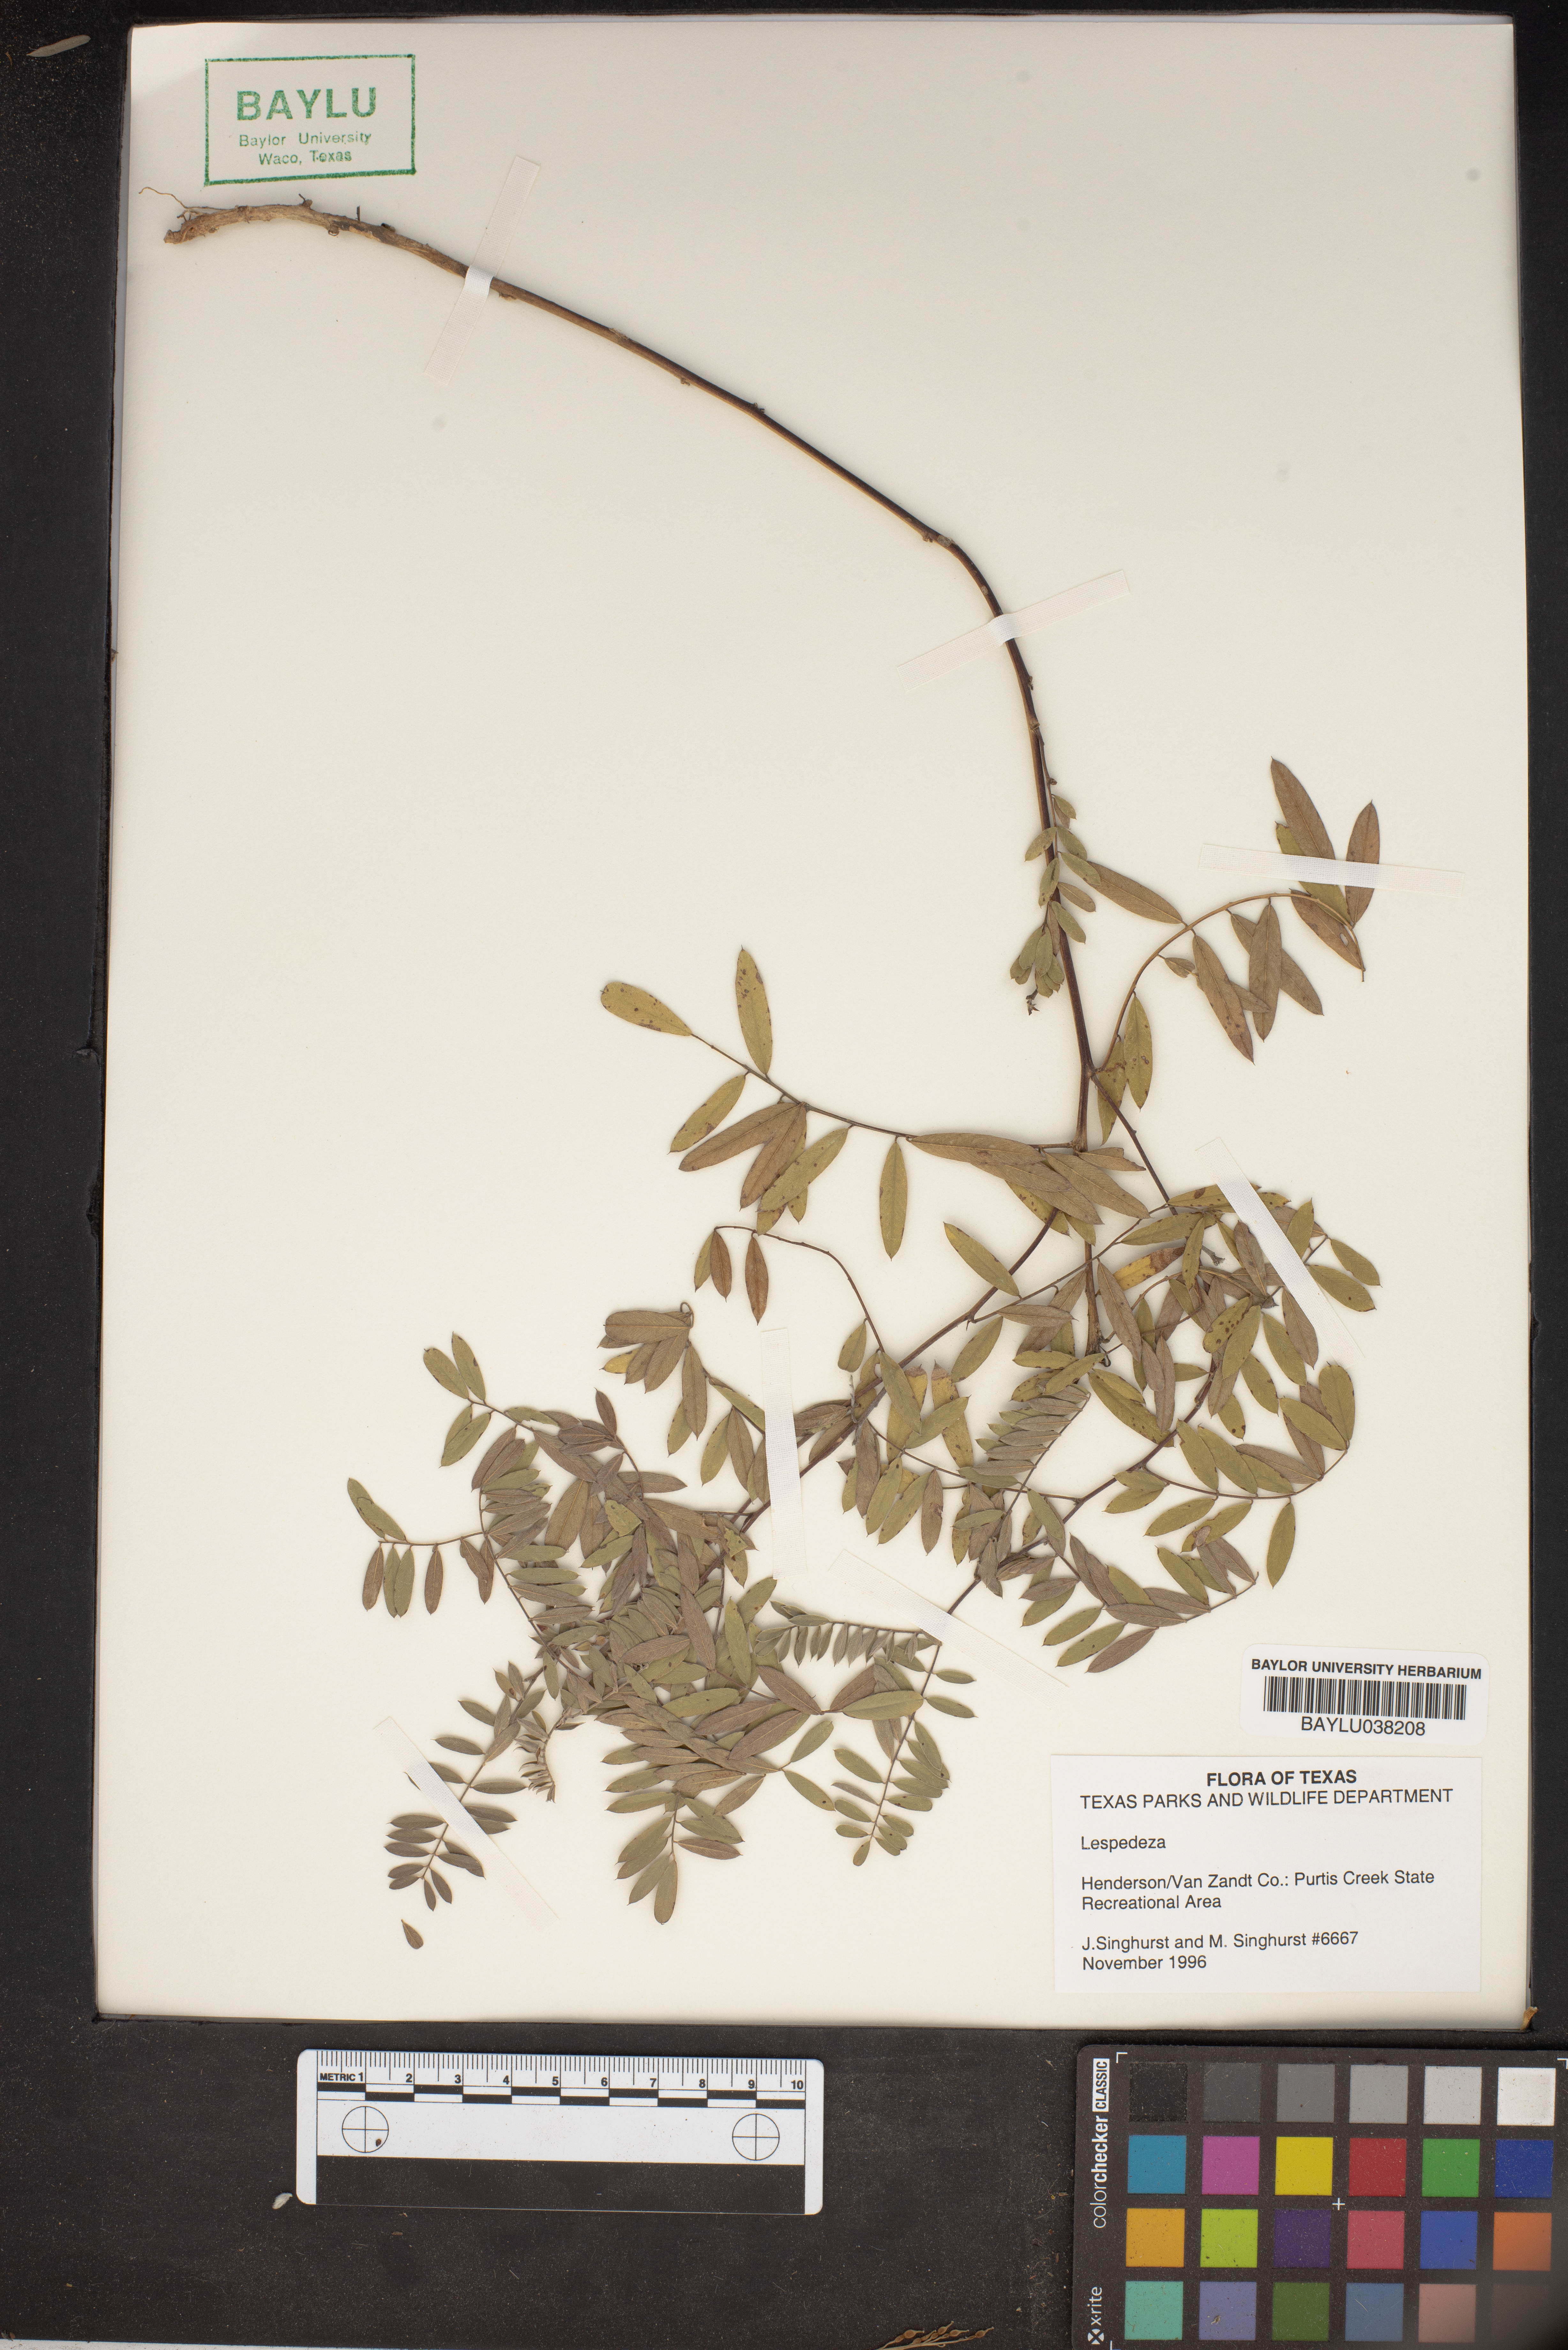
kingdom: Plantae
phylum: Tracheophyta
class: Magnoliopsida
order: Fabales
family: Fabaceae
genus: Lespedeza
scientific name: Lespedeza
